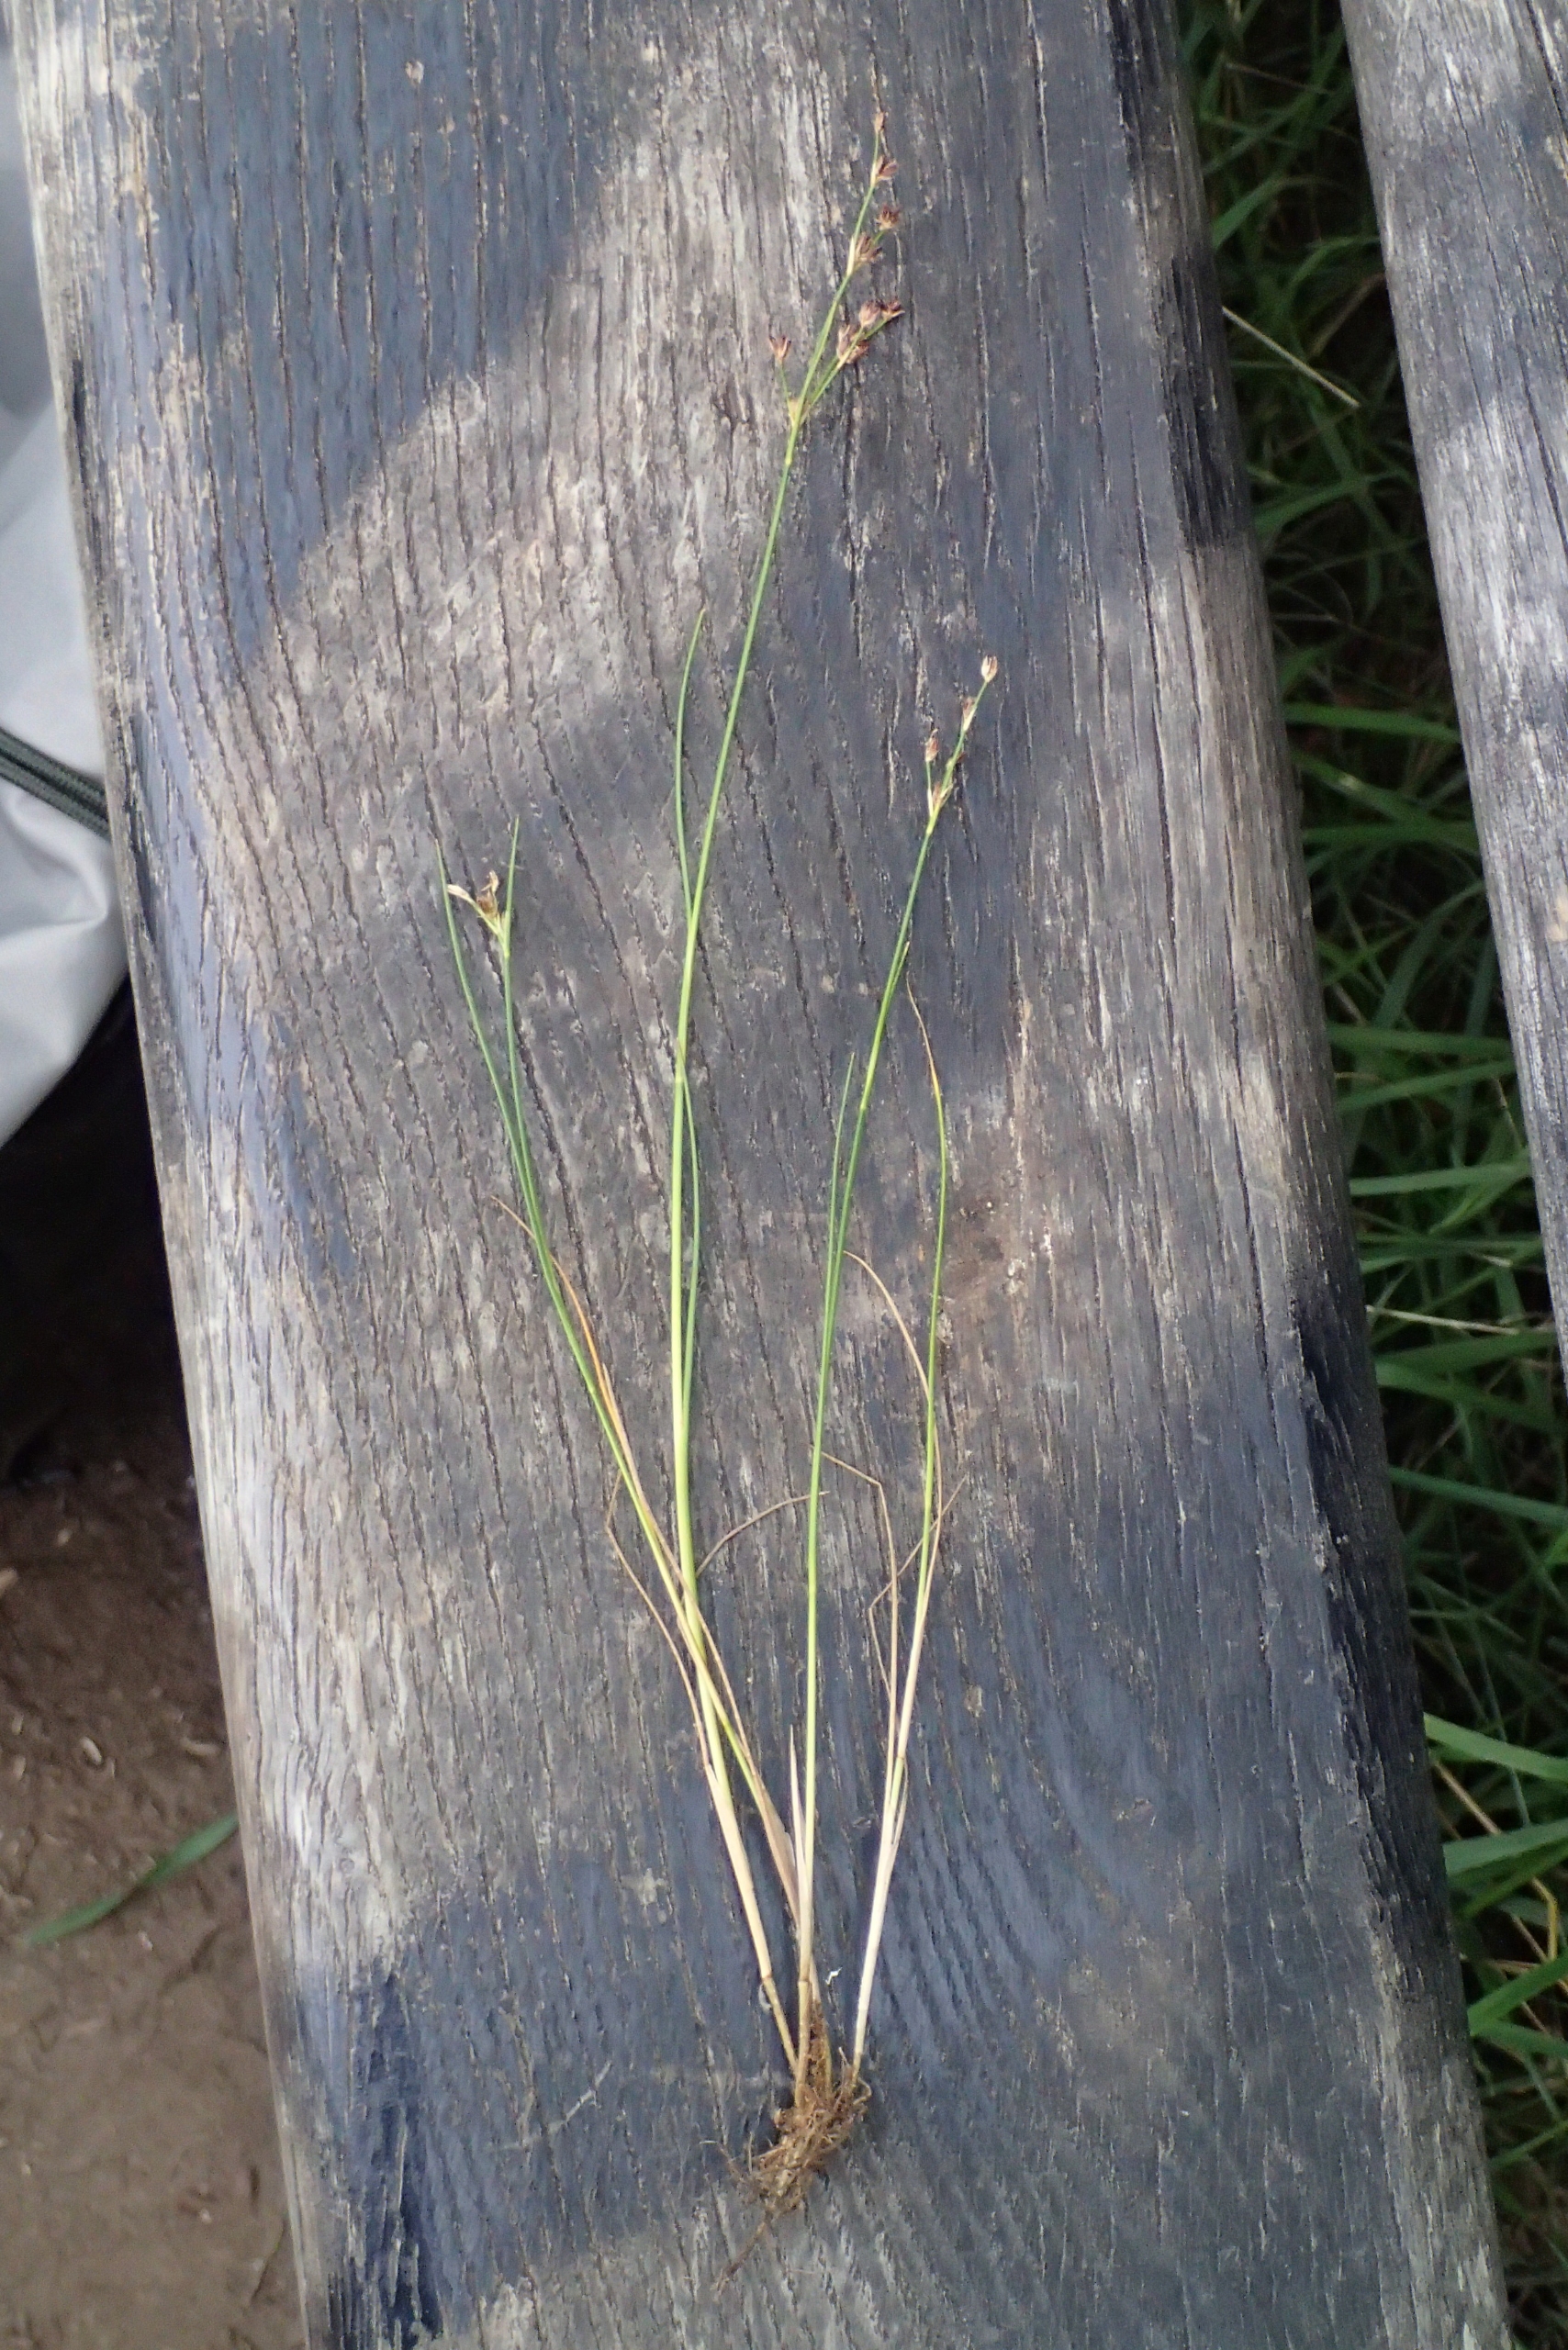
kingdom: Plantae
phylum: Tracheophyta
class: Liliopsida
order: Poales
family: Juncaceae
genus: Juncus
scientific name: Juncus articulatus
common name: Glanskapslet siv
